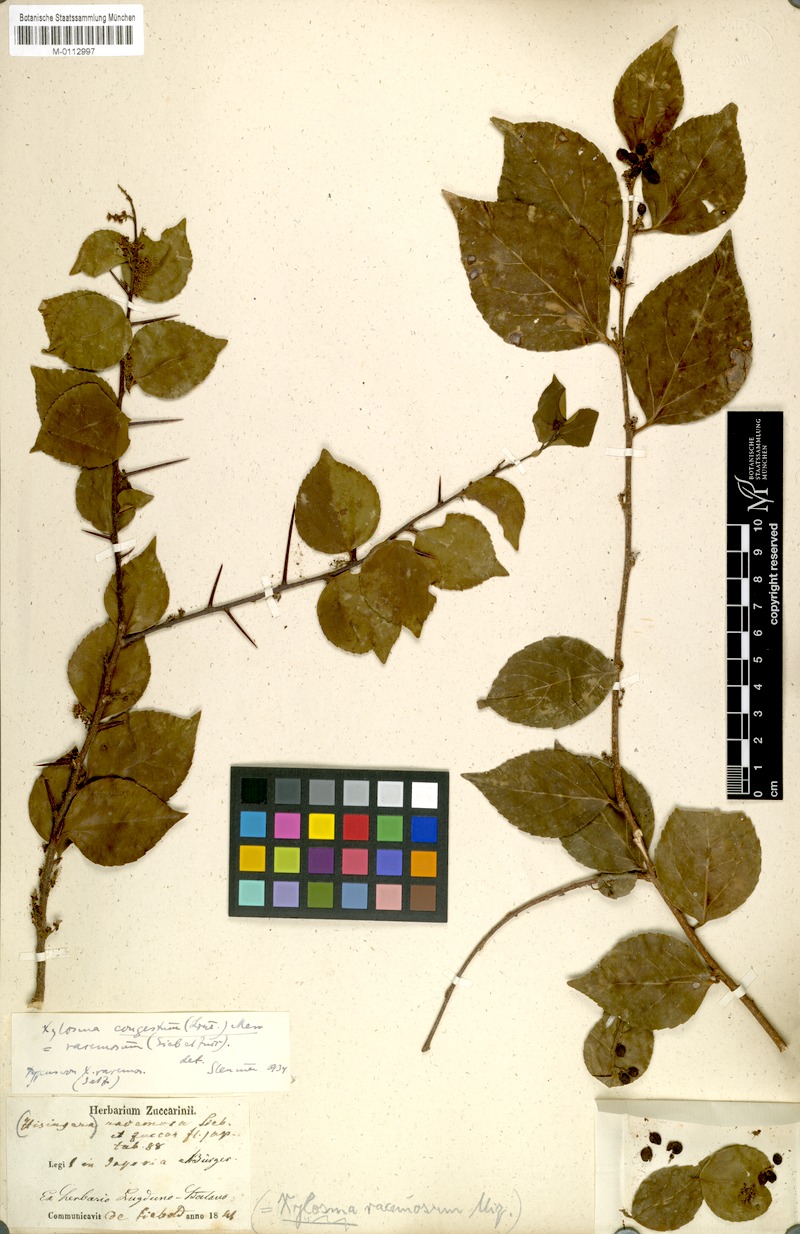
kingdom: Plantae
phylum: Tracheophyta
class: Magnoliopsida
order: Malpighiales
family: Salicaceae
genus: Xylosma
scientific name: Xylosma racemosum
